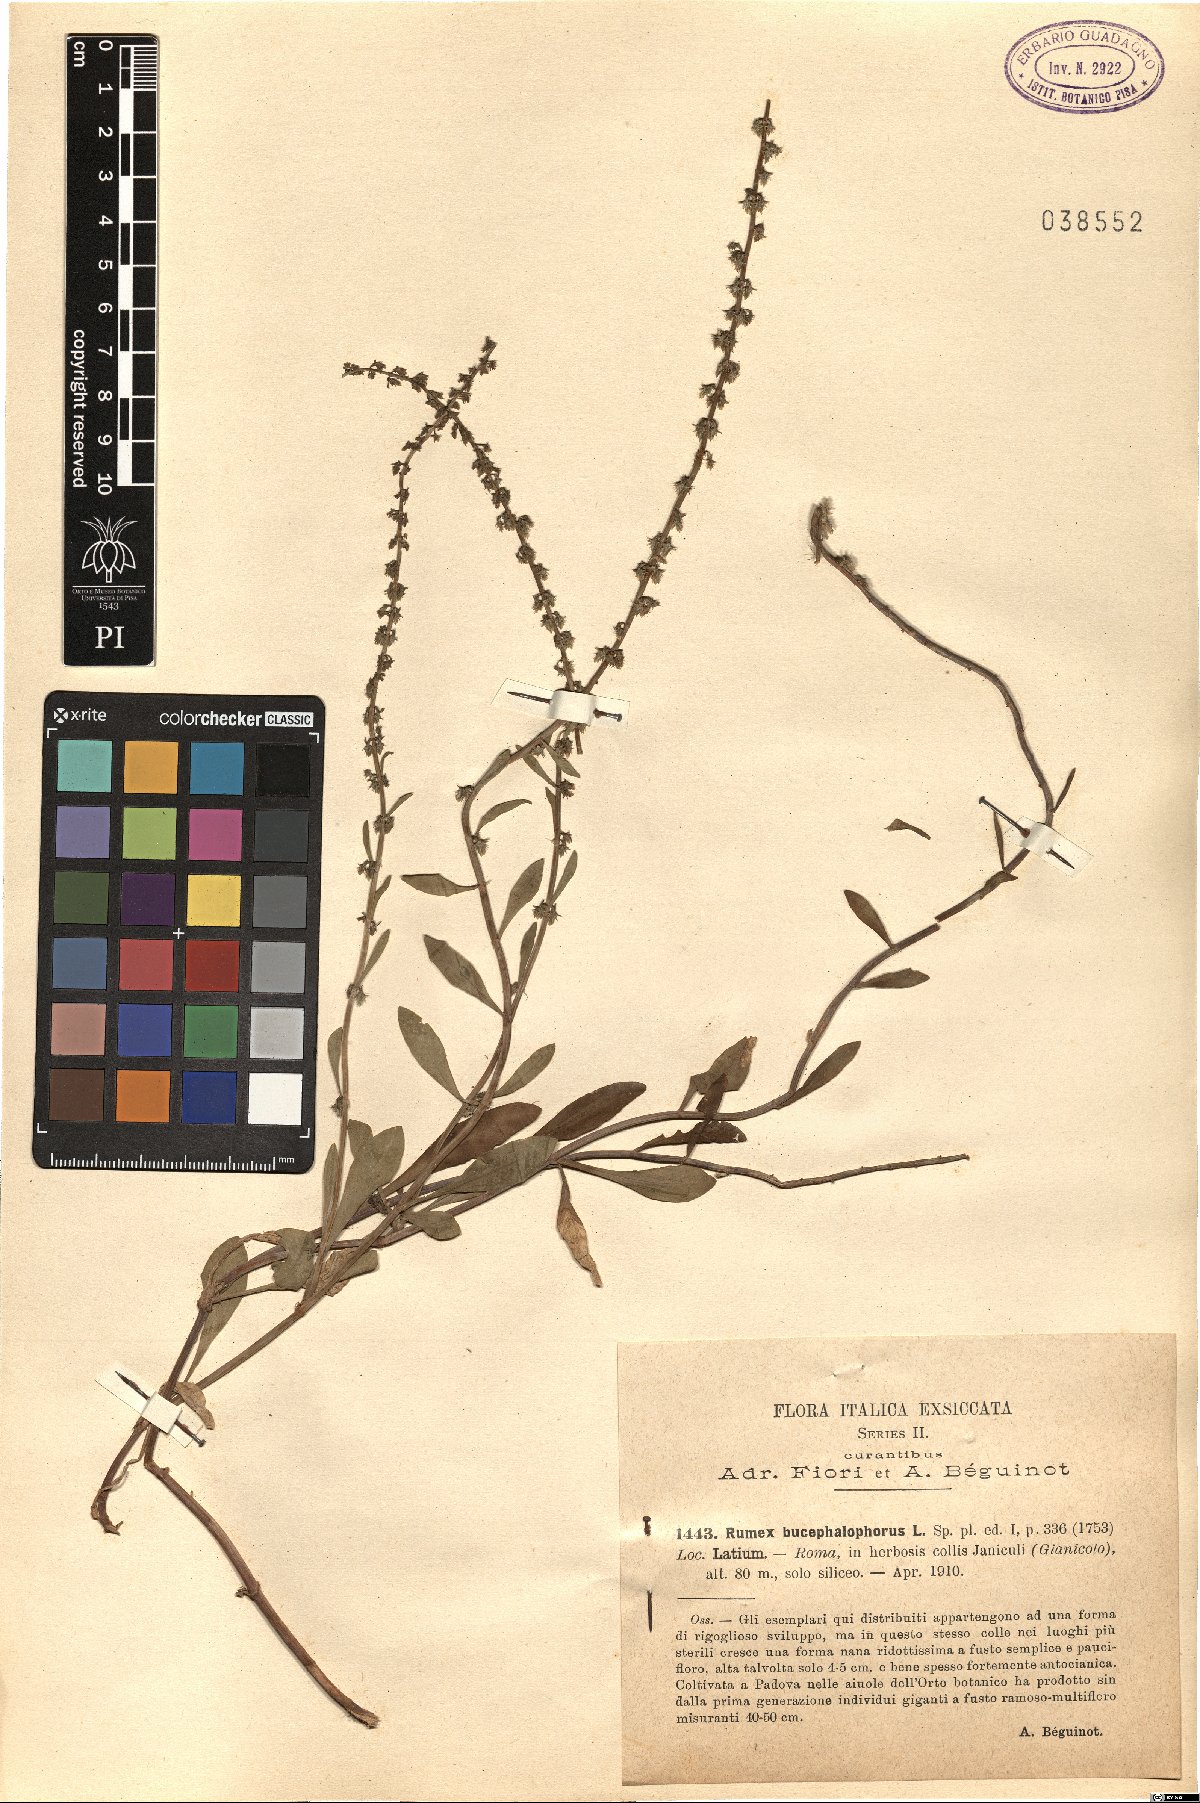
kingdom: Plantae
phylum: Tracheophyta
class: Magnoliopsida
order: Caryophyllales
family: Polygonaceae
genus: Rumex
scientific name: Rumex bucephalophorus
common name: Red dock
